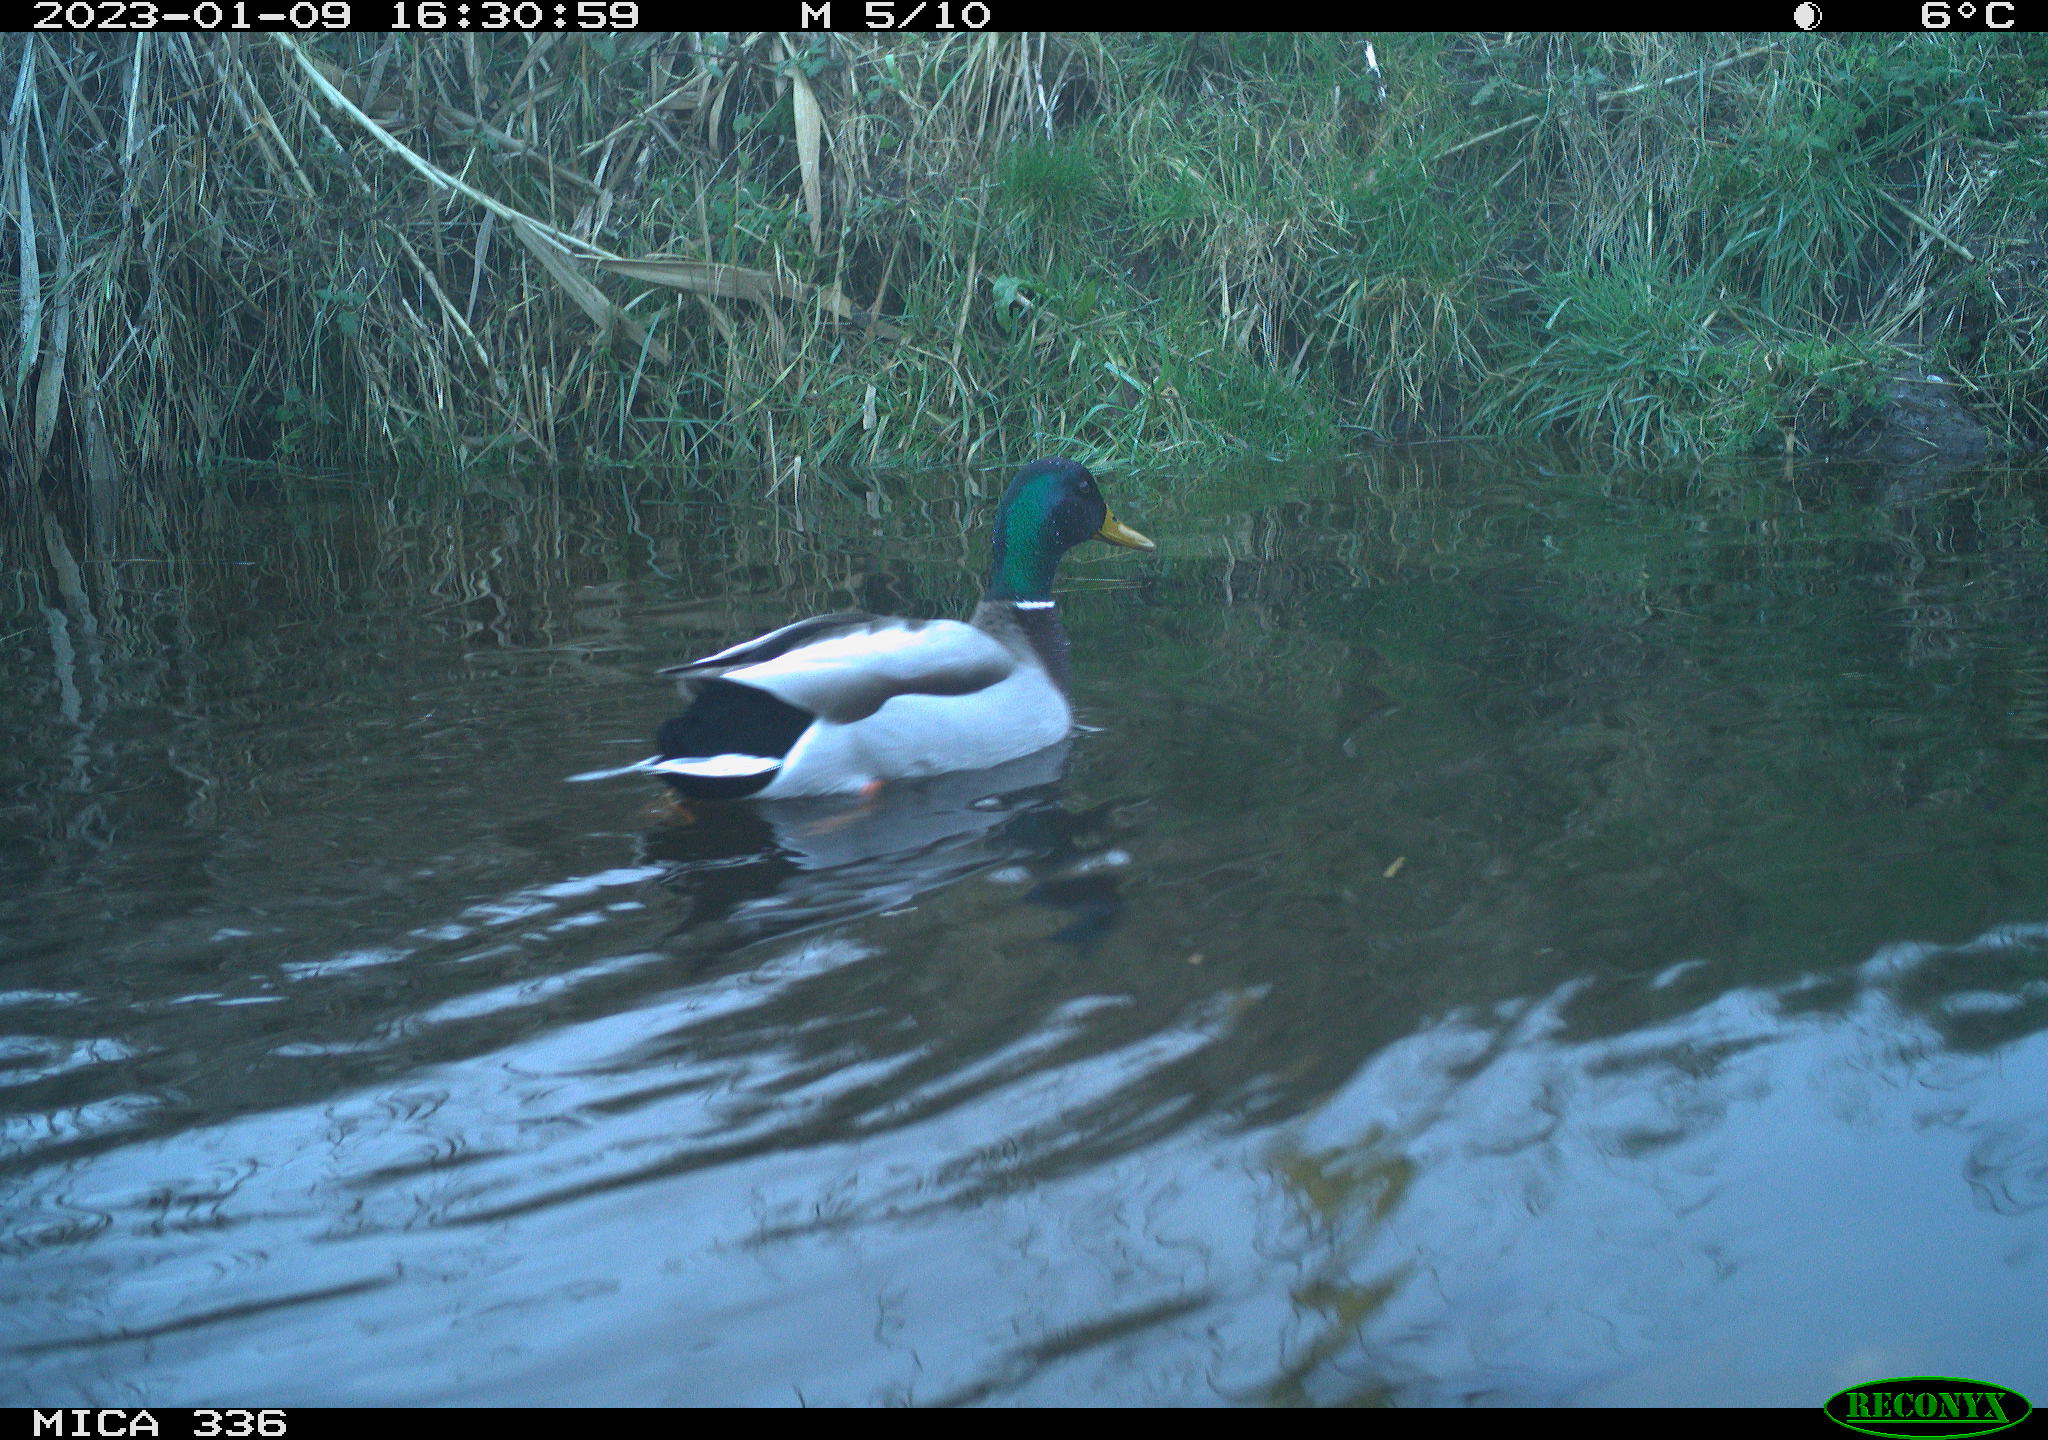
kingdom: Animalia
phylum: Chordata
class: Aves
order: Anseriformes
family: Anatidae
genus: Anas
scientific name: Anas
